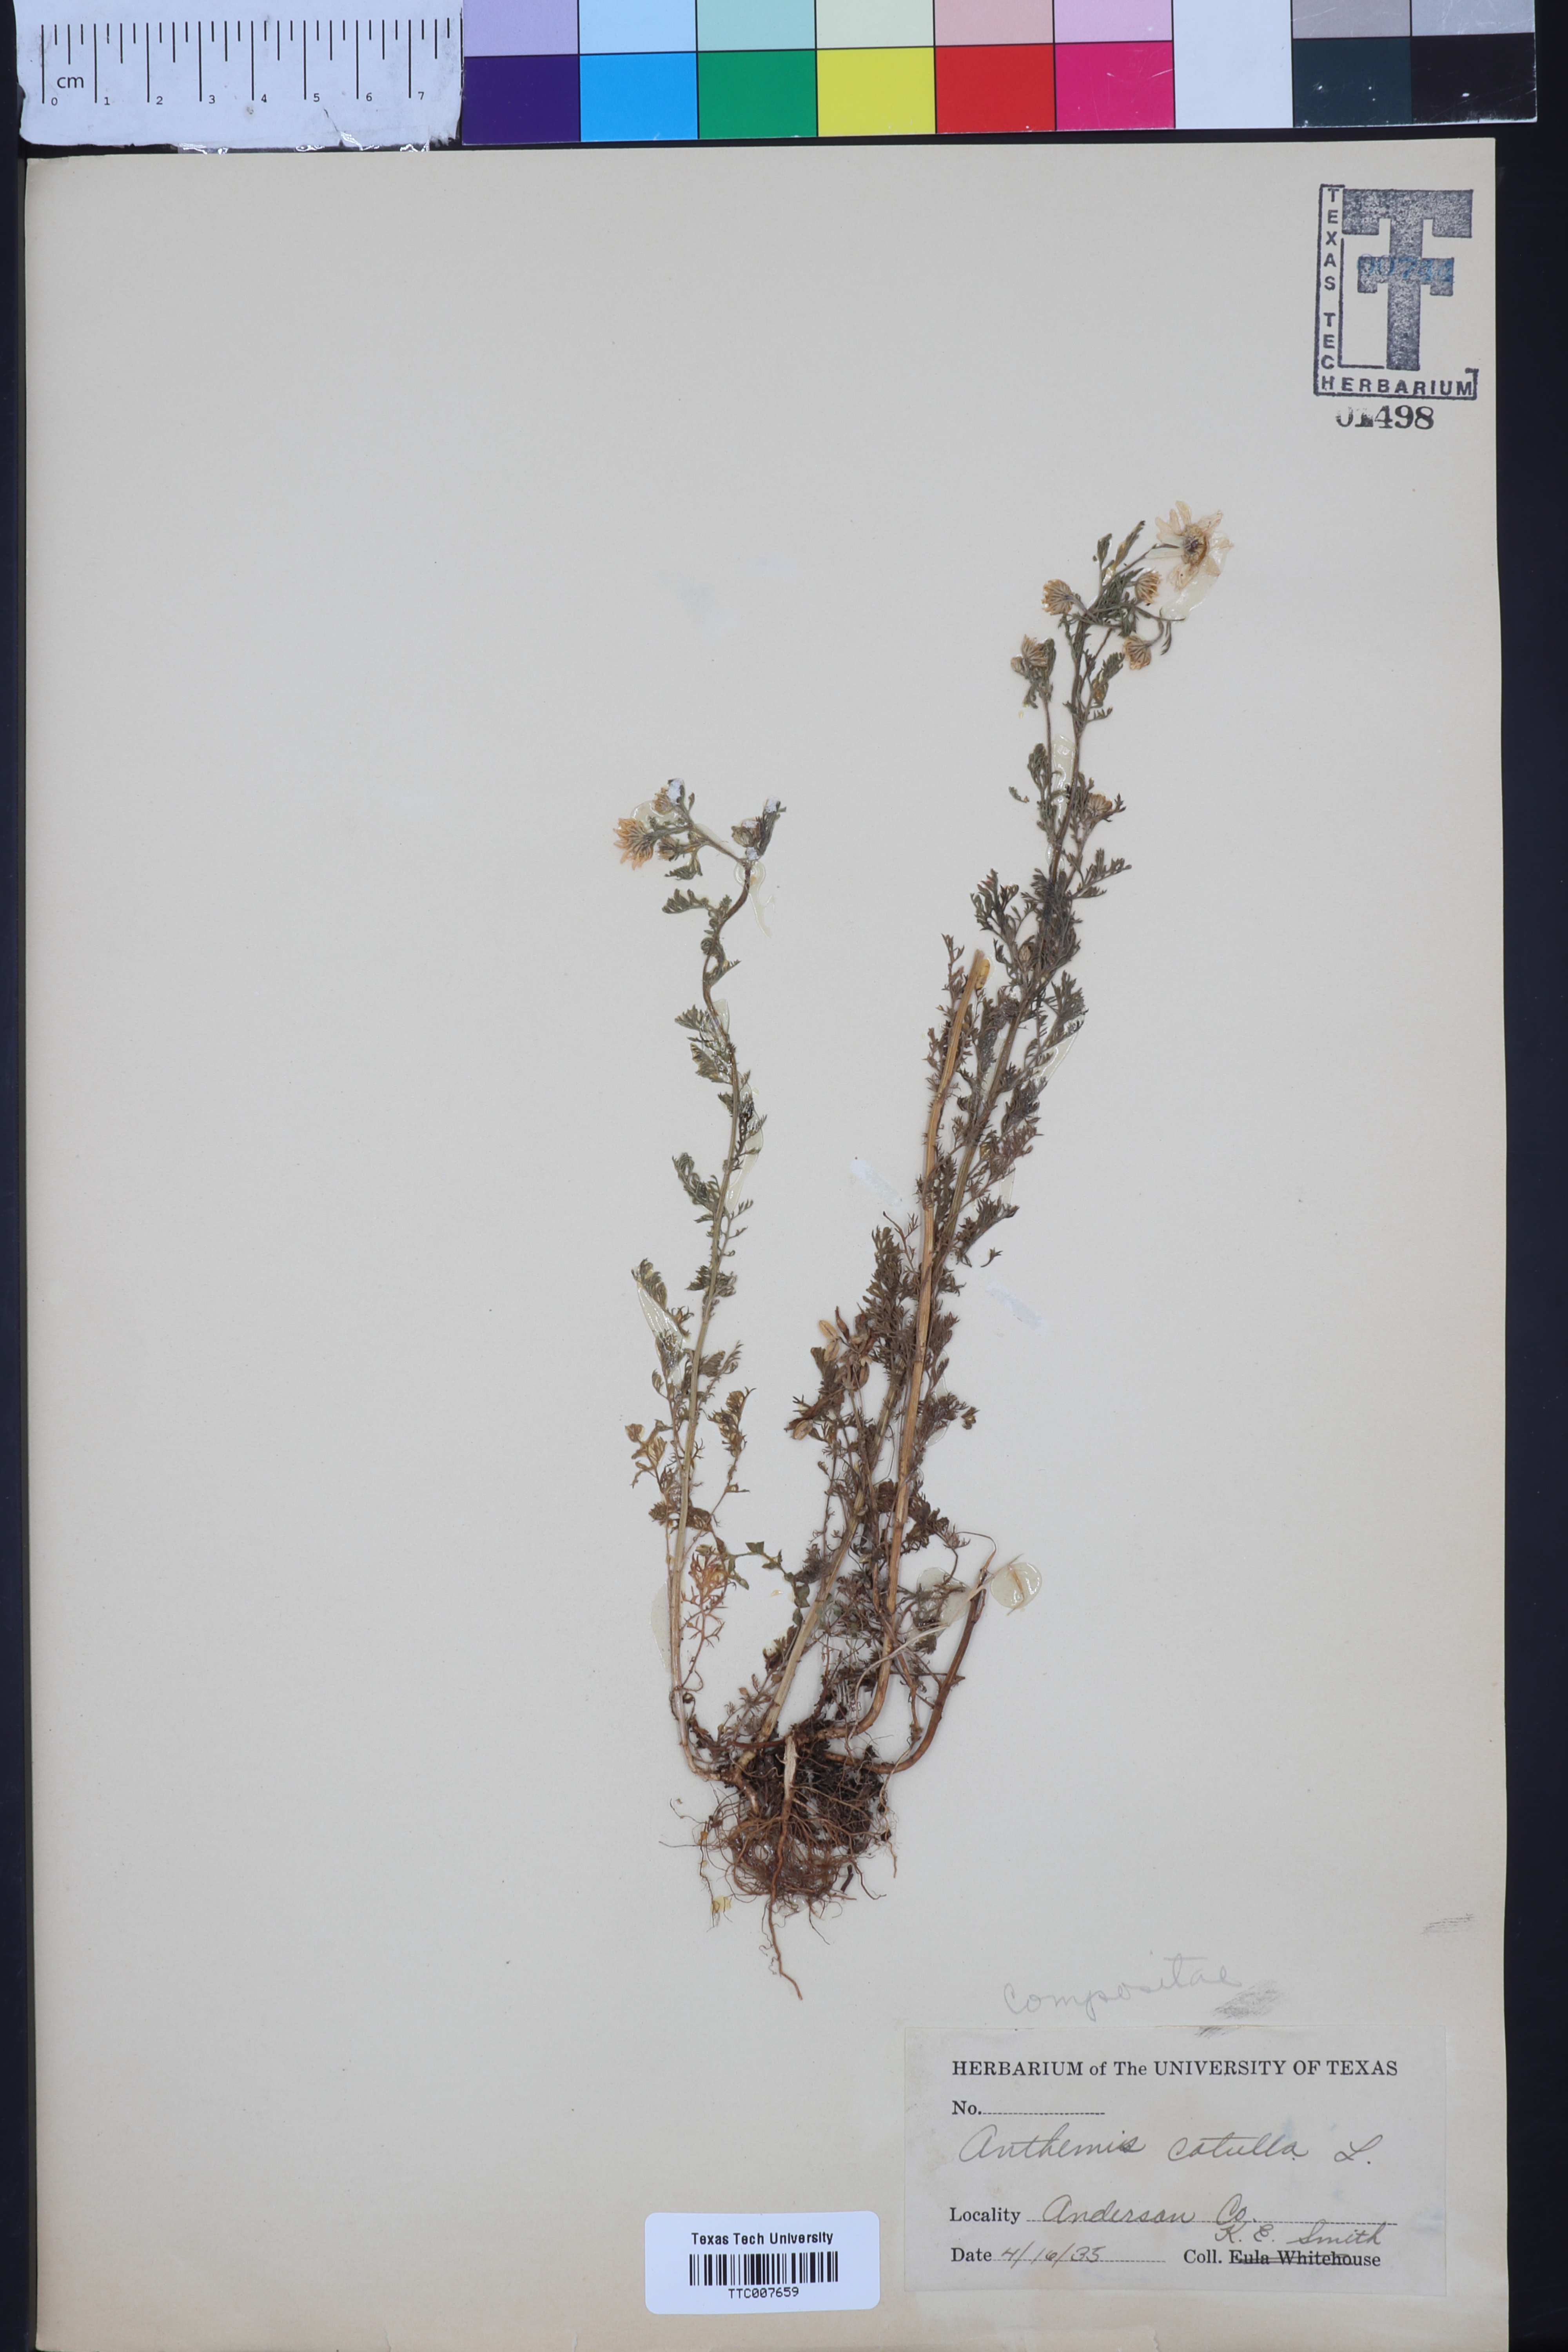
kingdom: Plantae
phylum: Tracheophyta
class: Magnoliopsida
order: Asterales
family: Asteraceae
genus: Antennaria
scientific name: Antennaria
